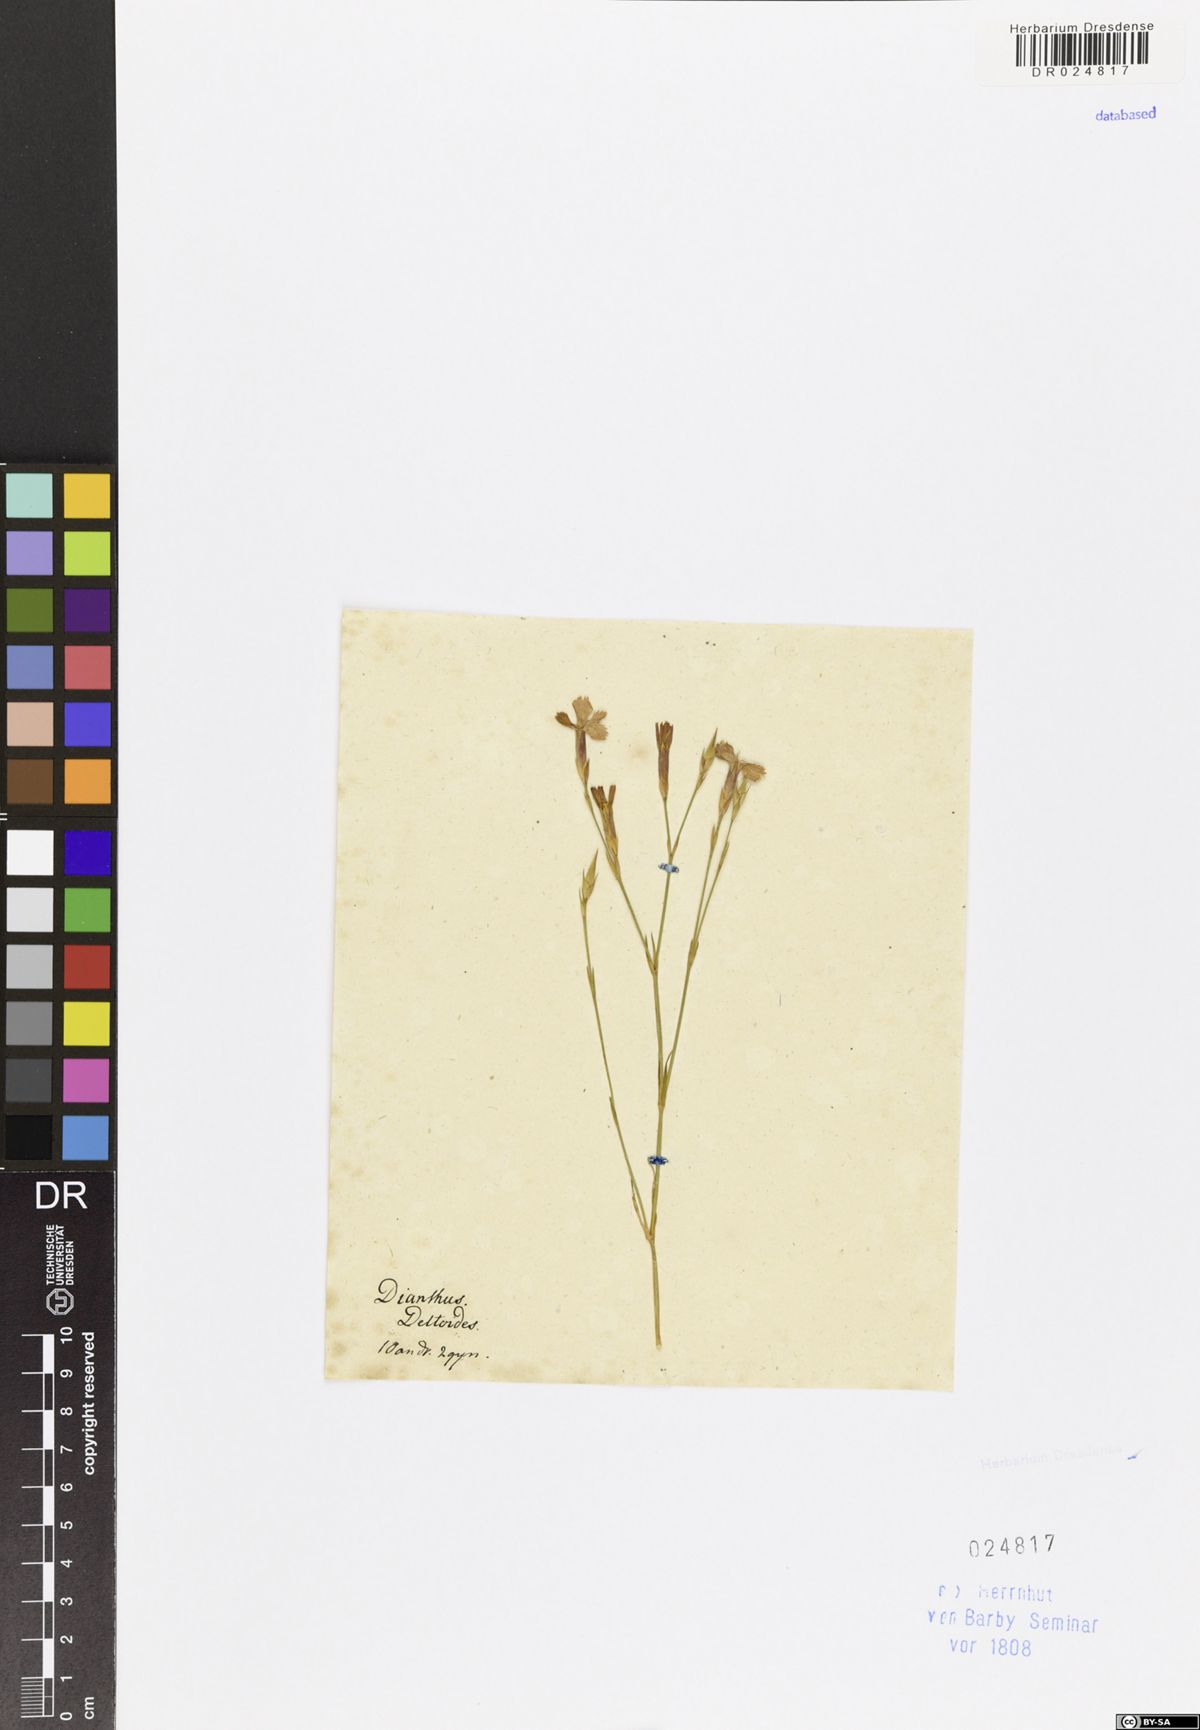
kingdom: Plantae
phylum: Tracheophyta
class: Magnoliopsida
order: Caryophyllales
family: Caryophyllaceae
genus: Dianthus
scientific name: Dianthus deltoides
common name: Maiden pink
